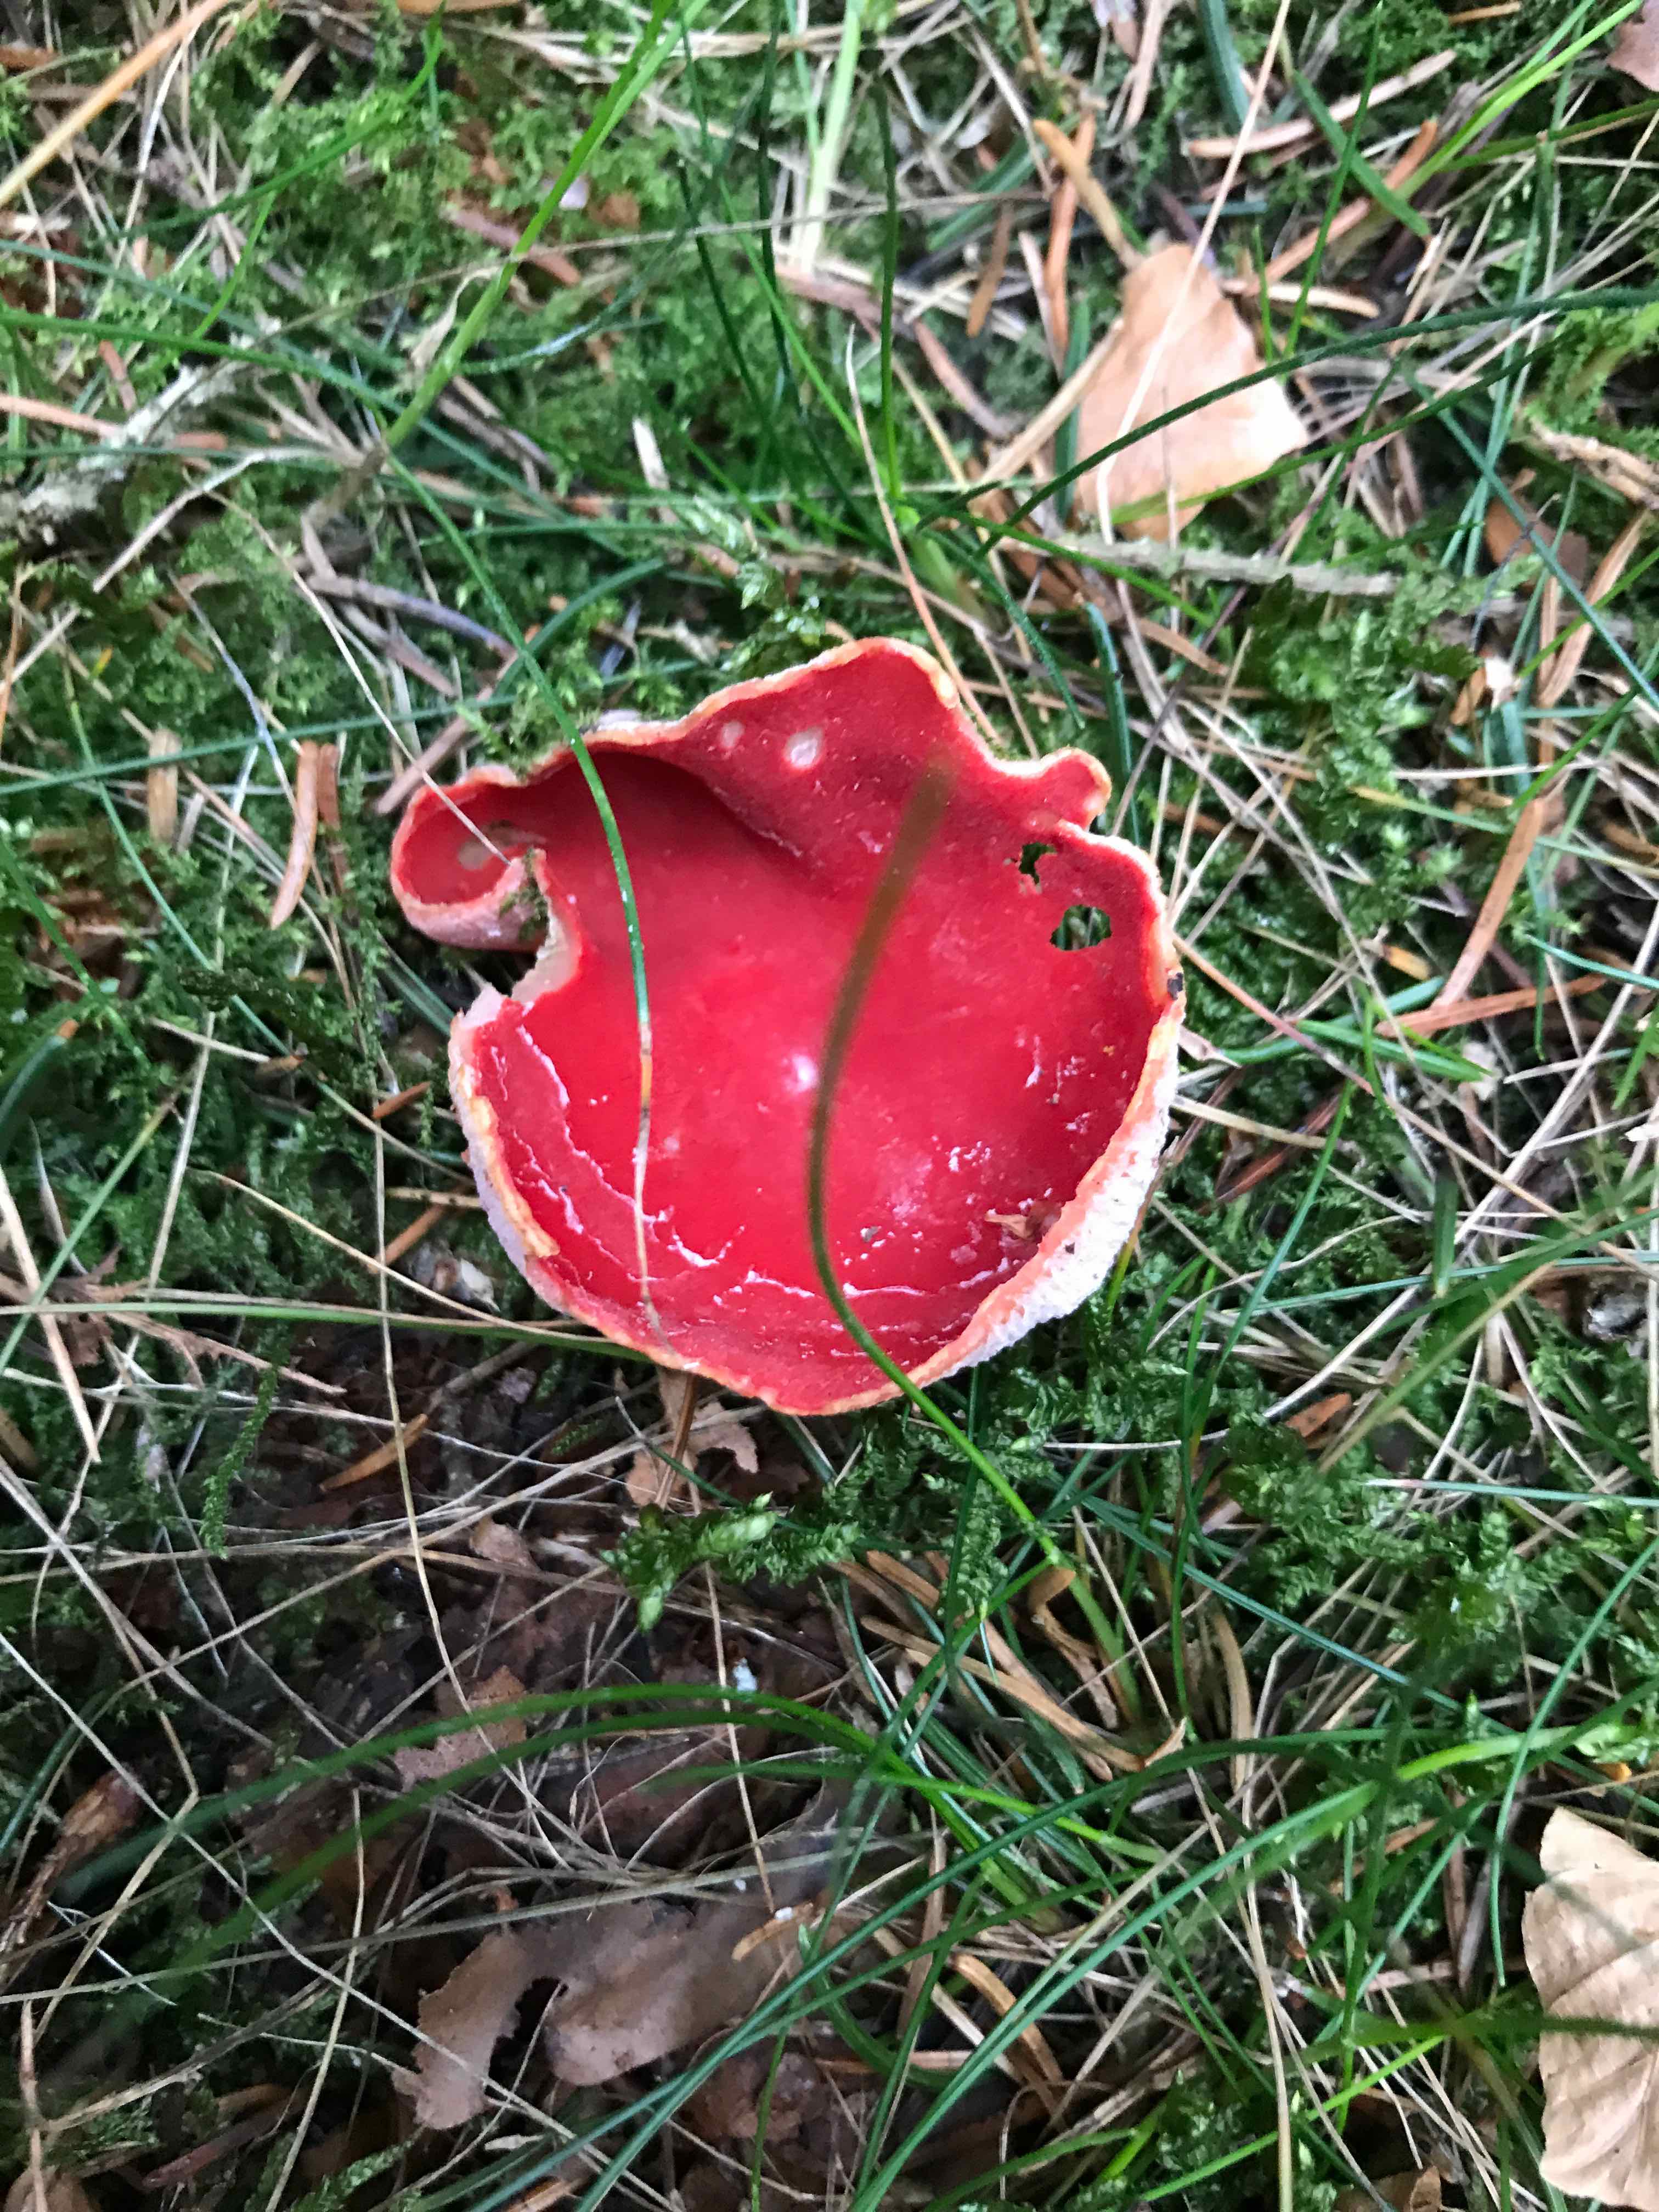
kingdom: Fungi
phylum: Ascomycota
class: Pezizomycetes
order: Pezizales
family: Sarcoscyphaceae
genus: Sarcoscypha
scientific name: Sarcoscypha austriaca
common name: krølhåret pragtbæger
